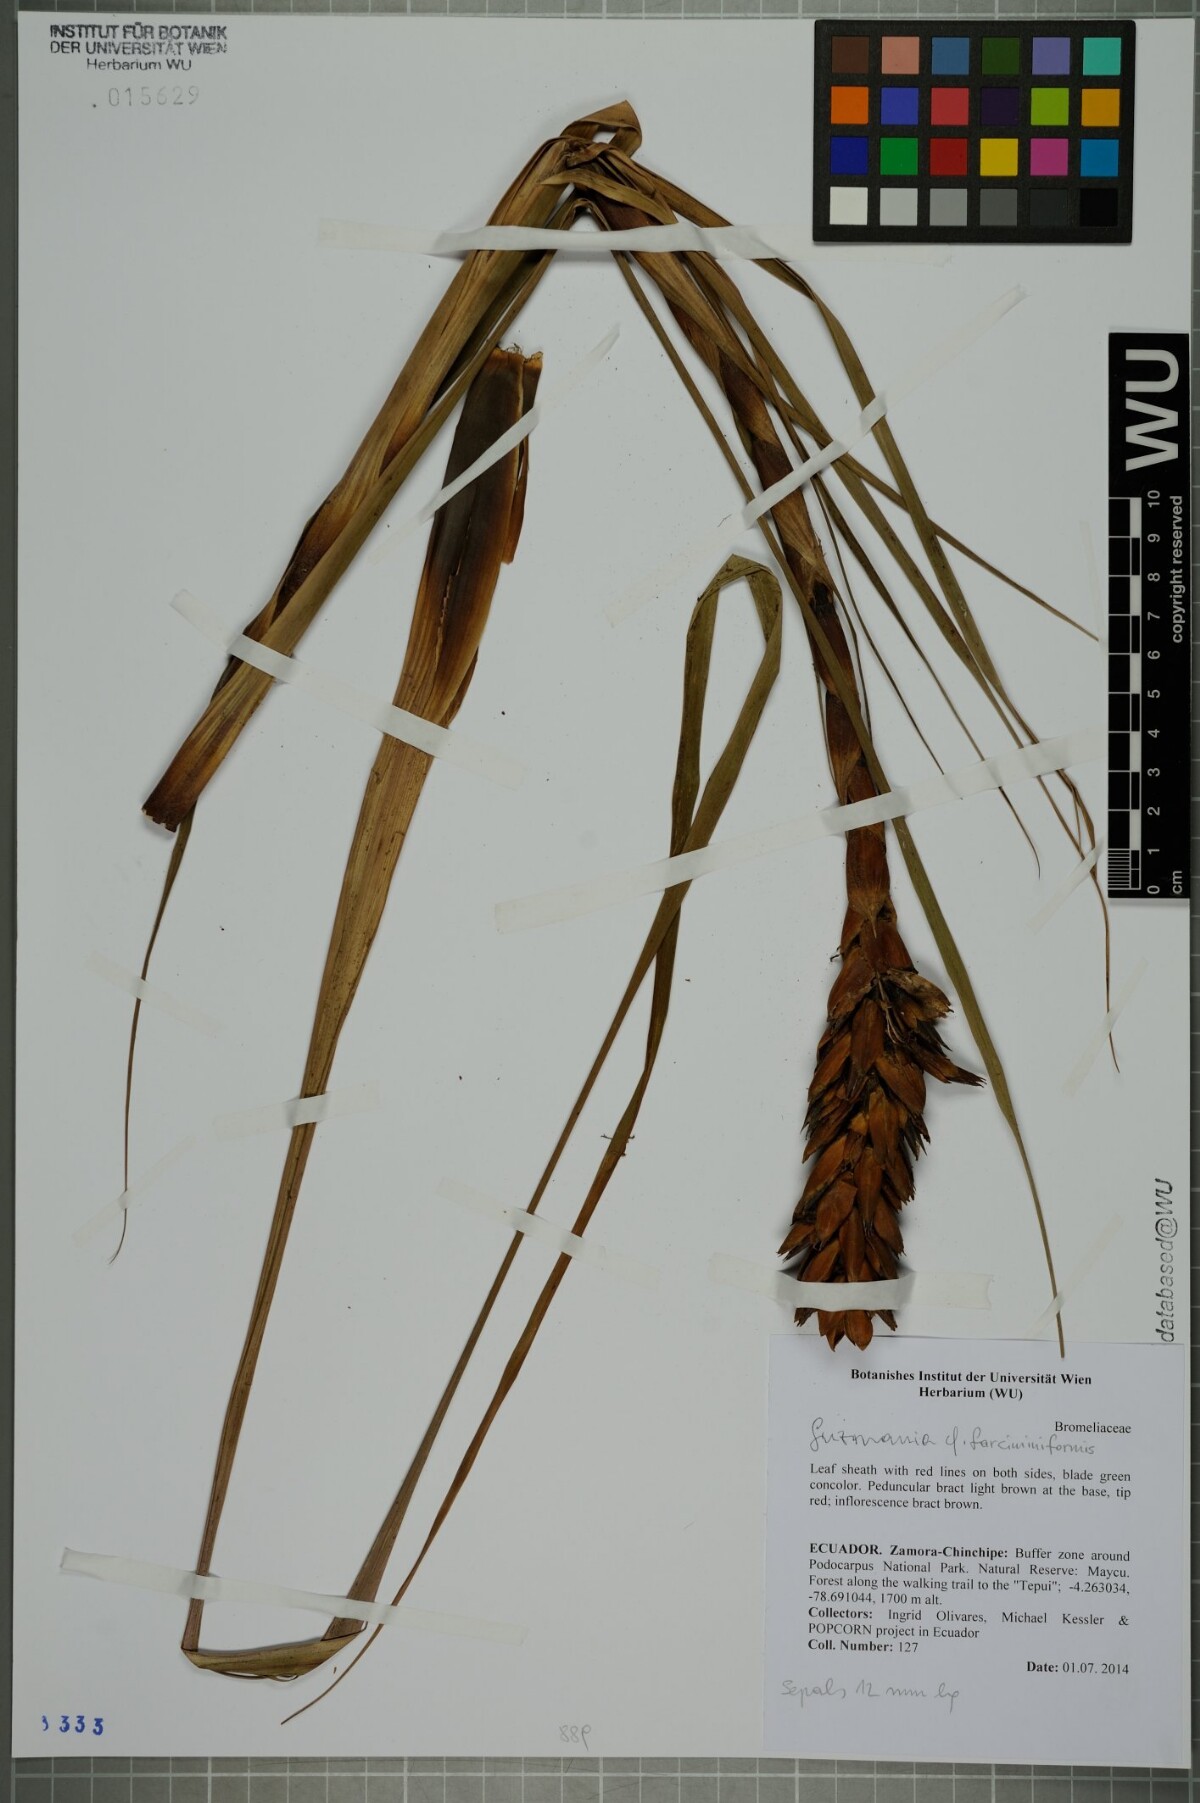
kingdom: Plantae
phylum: Tracheophyta
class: Liliopsida
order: Poales
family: Bromeliaceae
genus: Guzmania
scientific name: Guzmania farciminiformis
